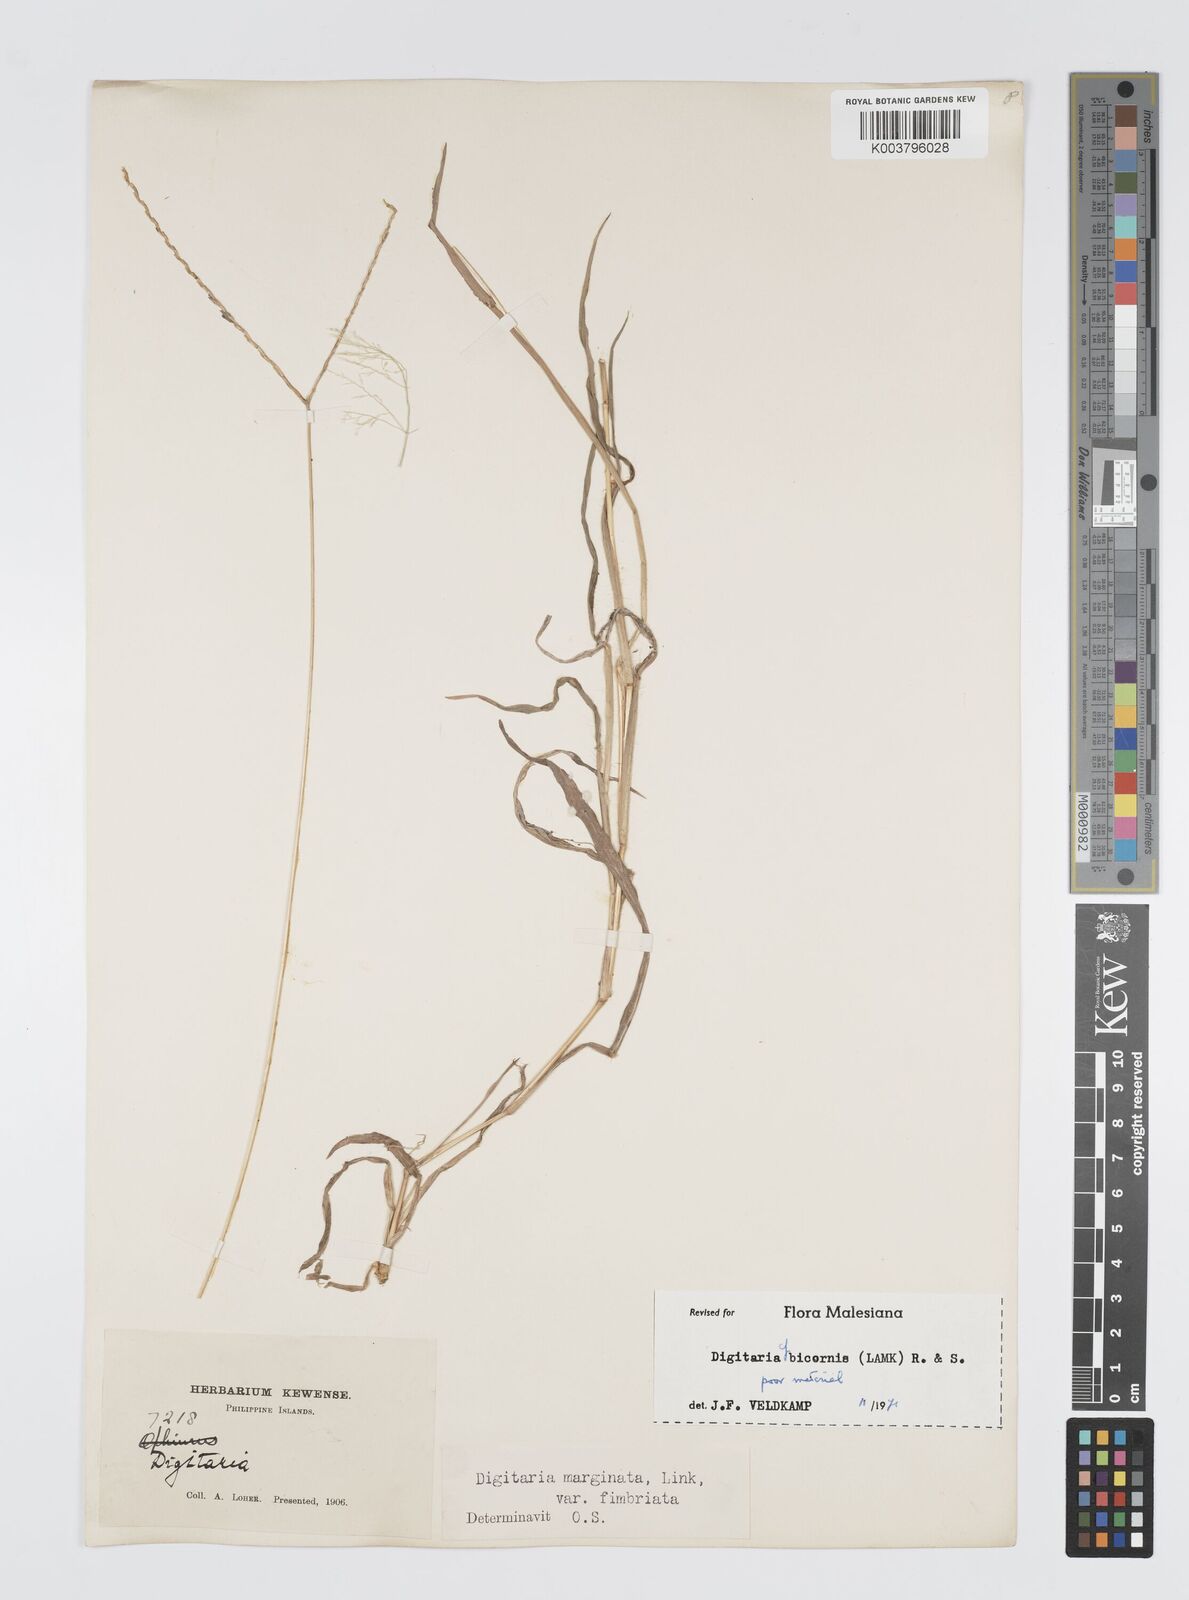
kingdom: Plantae
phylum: Tracheophyta
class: Liliopsida
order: Poales
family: Poaceae
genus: Digitaria
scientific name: Digitaria ciliaris
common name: Tropical finger-grass
